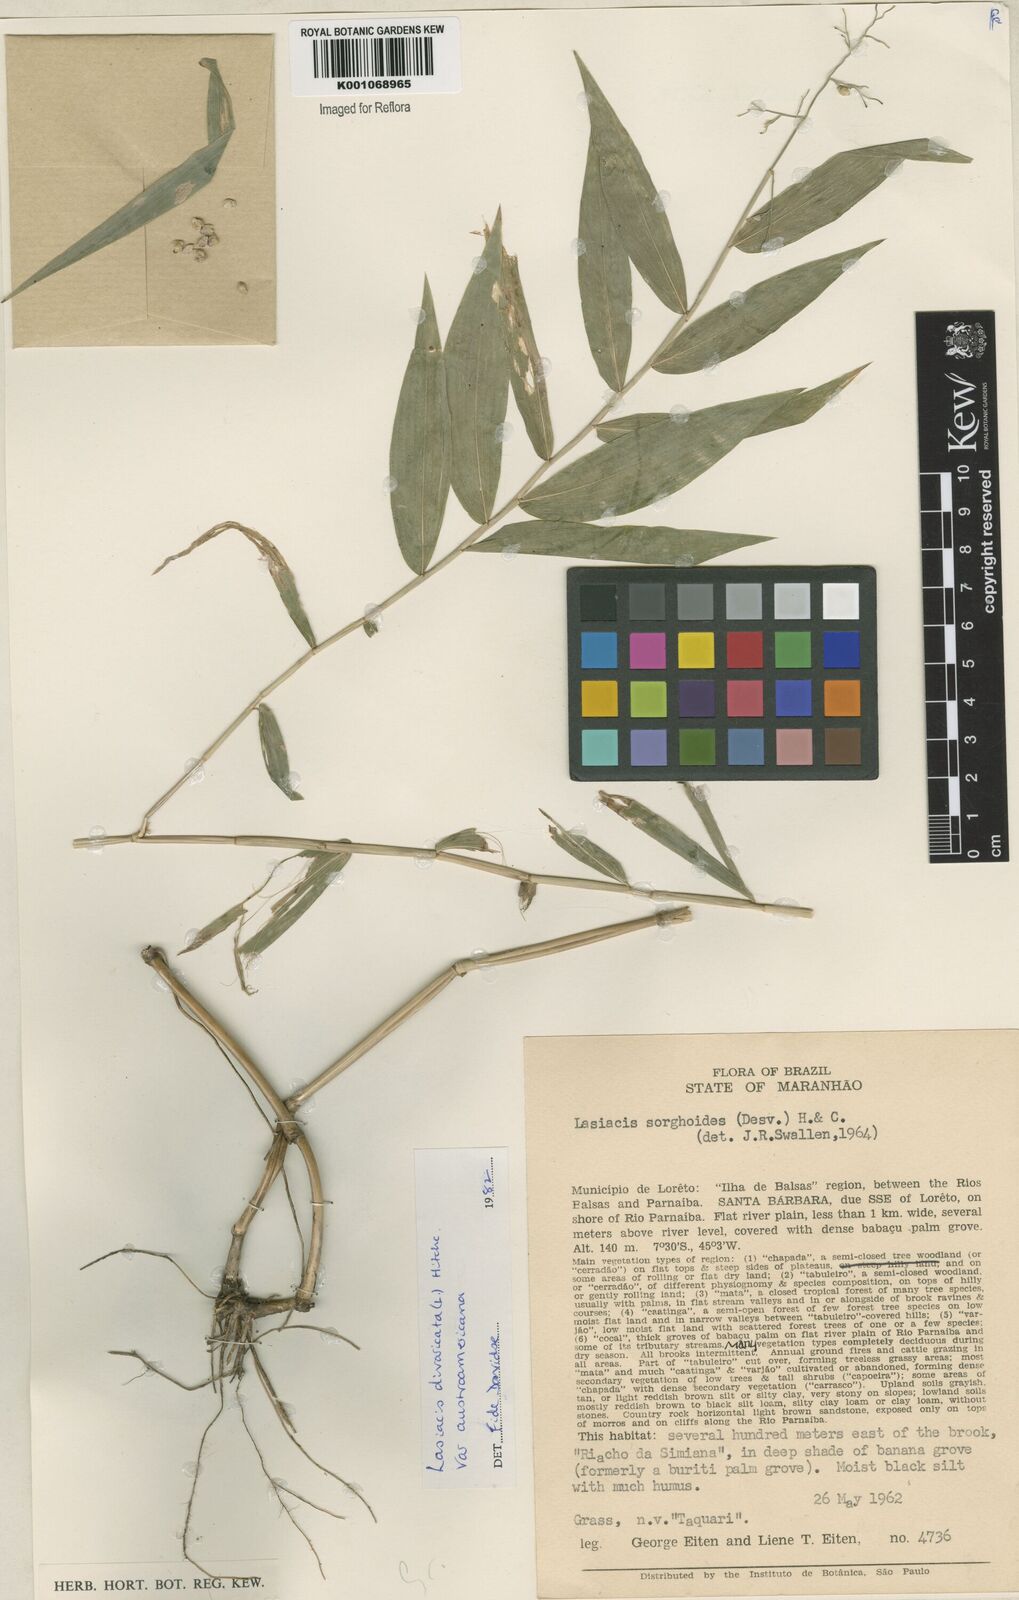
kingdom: Plantae
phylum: Tracheophyta
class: Liliopsida
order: Poales
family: Poaceae
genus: Lasiacis
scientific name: Lasiacis divaricata
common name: Smallcane
